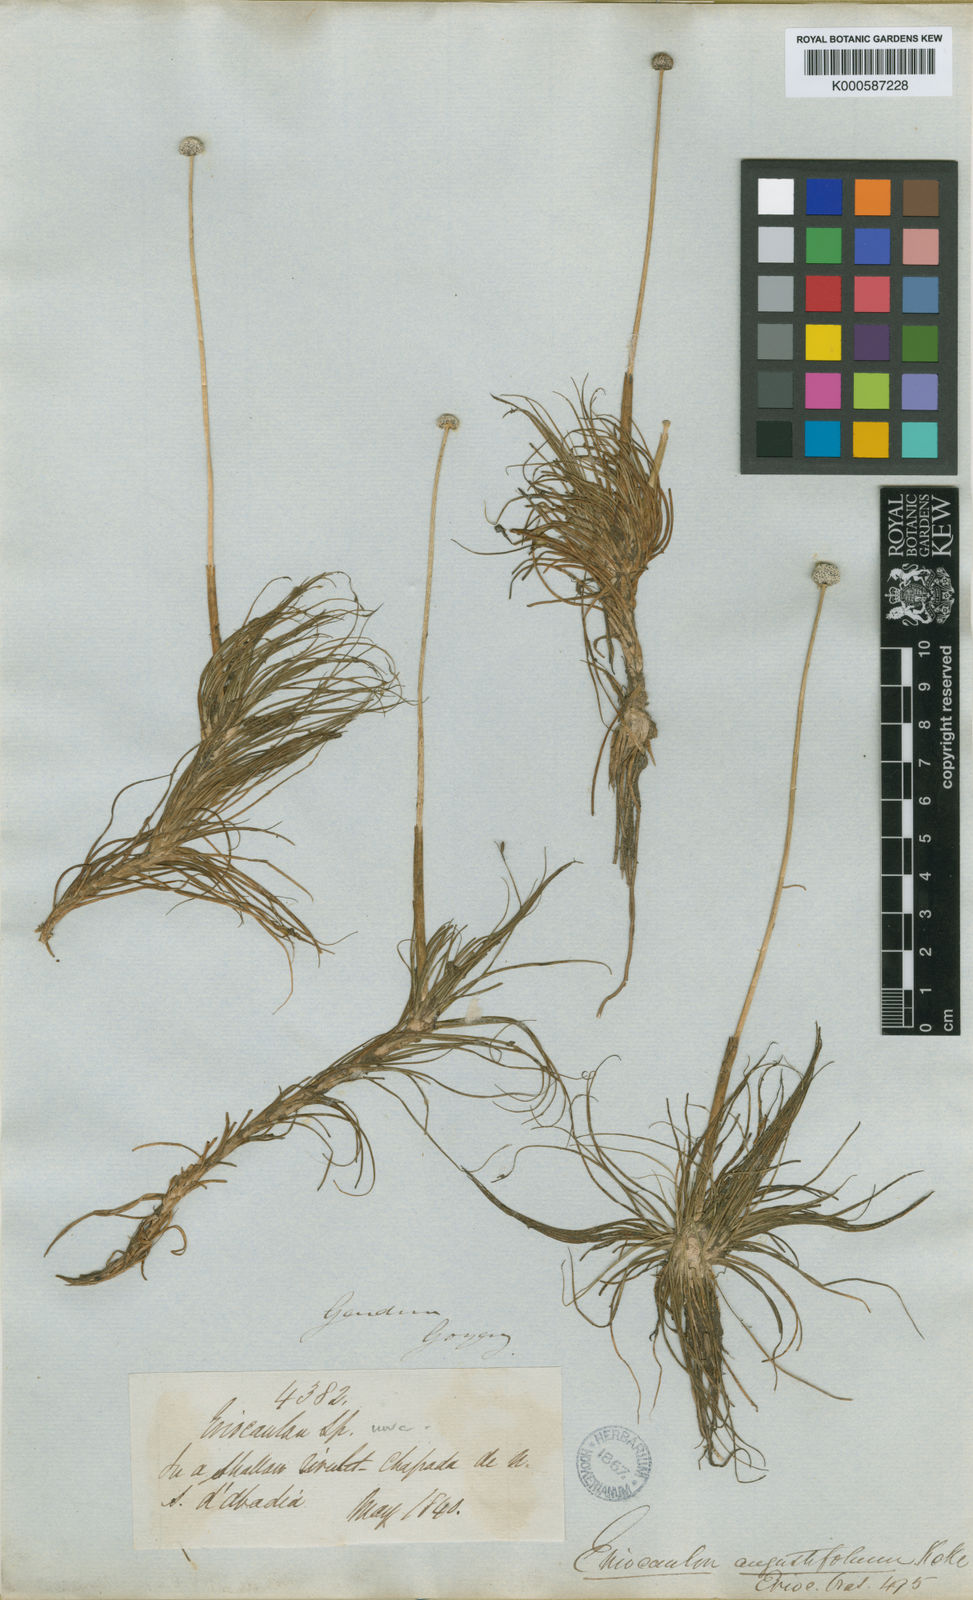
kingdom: Plantae
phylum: Tracheophyta
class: Liliopsida
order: Poales
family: Eriocaulaceae
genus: Eriocaulon
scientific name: Eriocaulon
